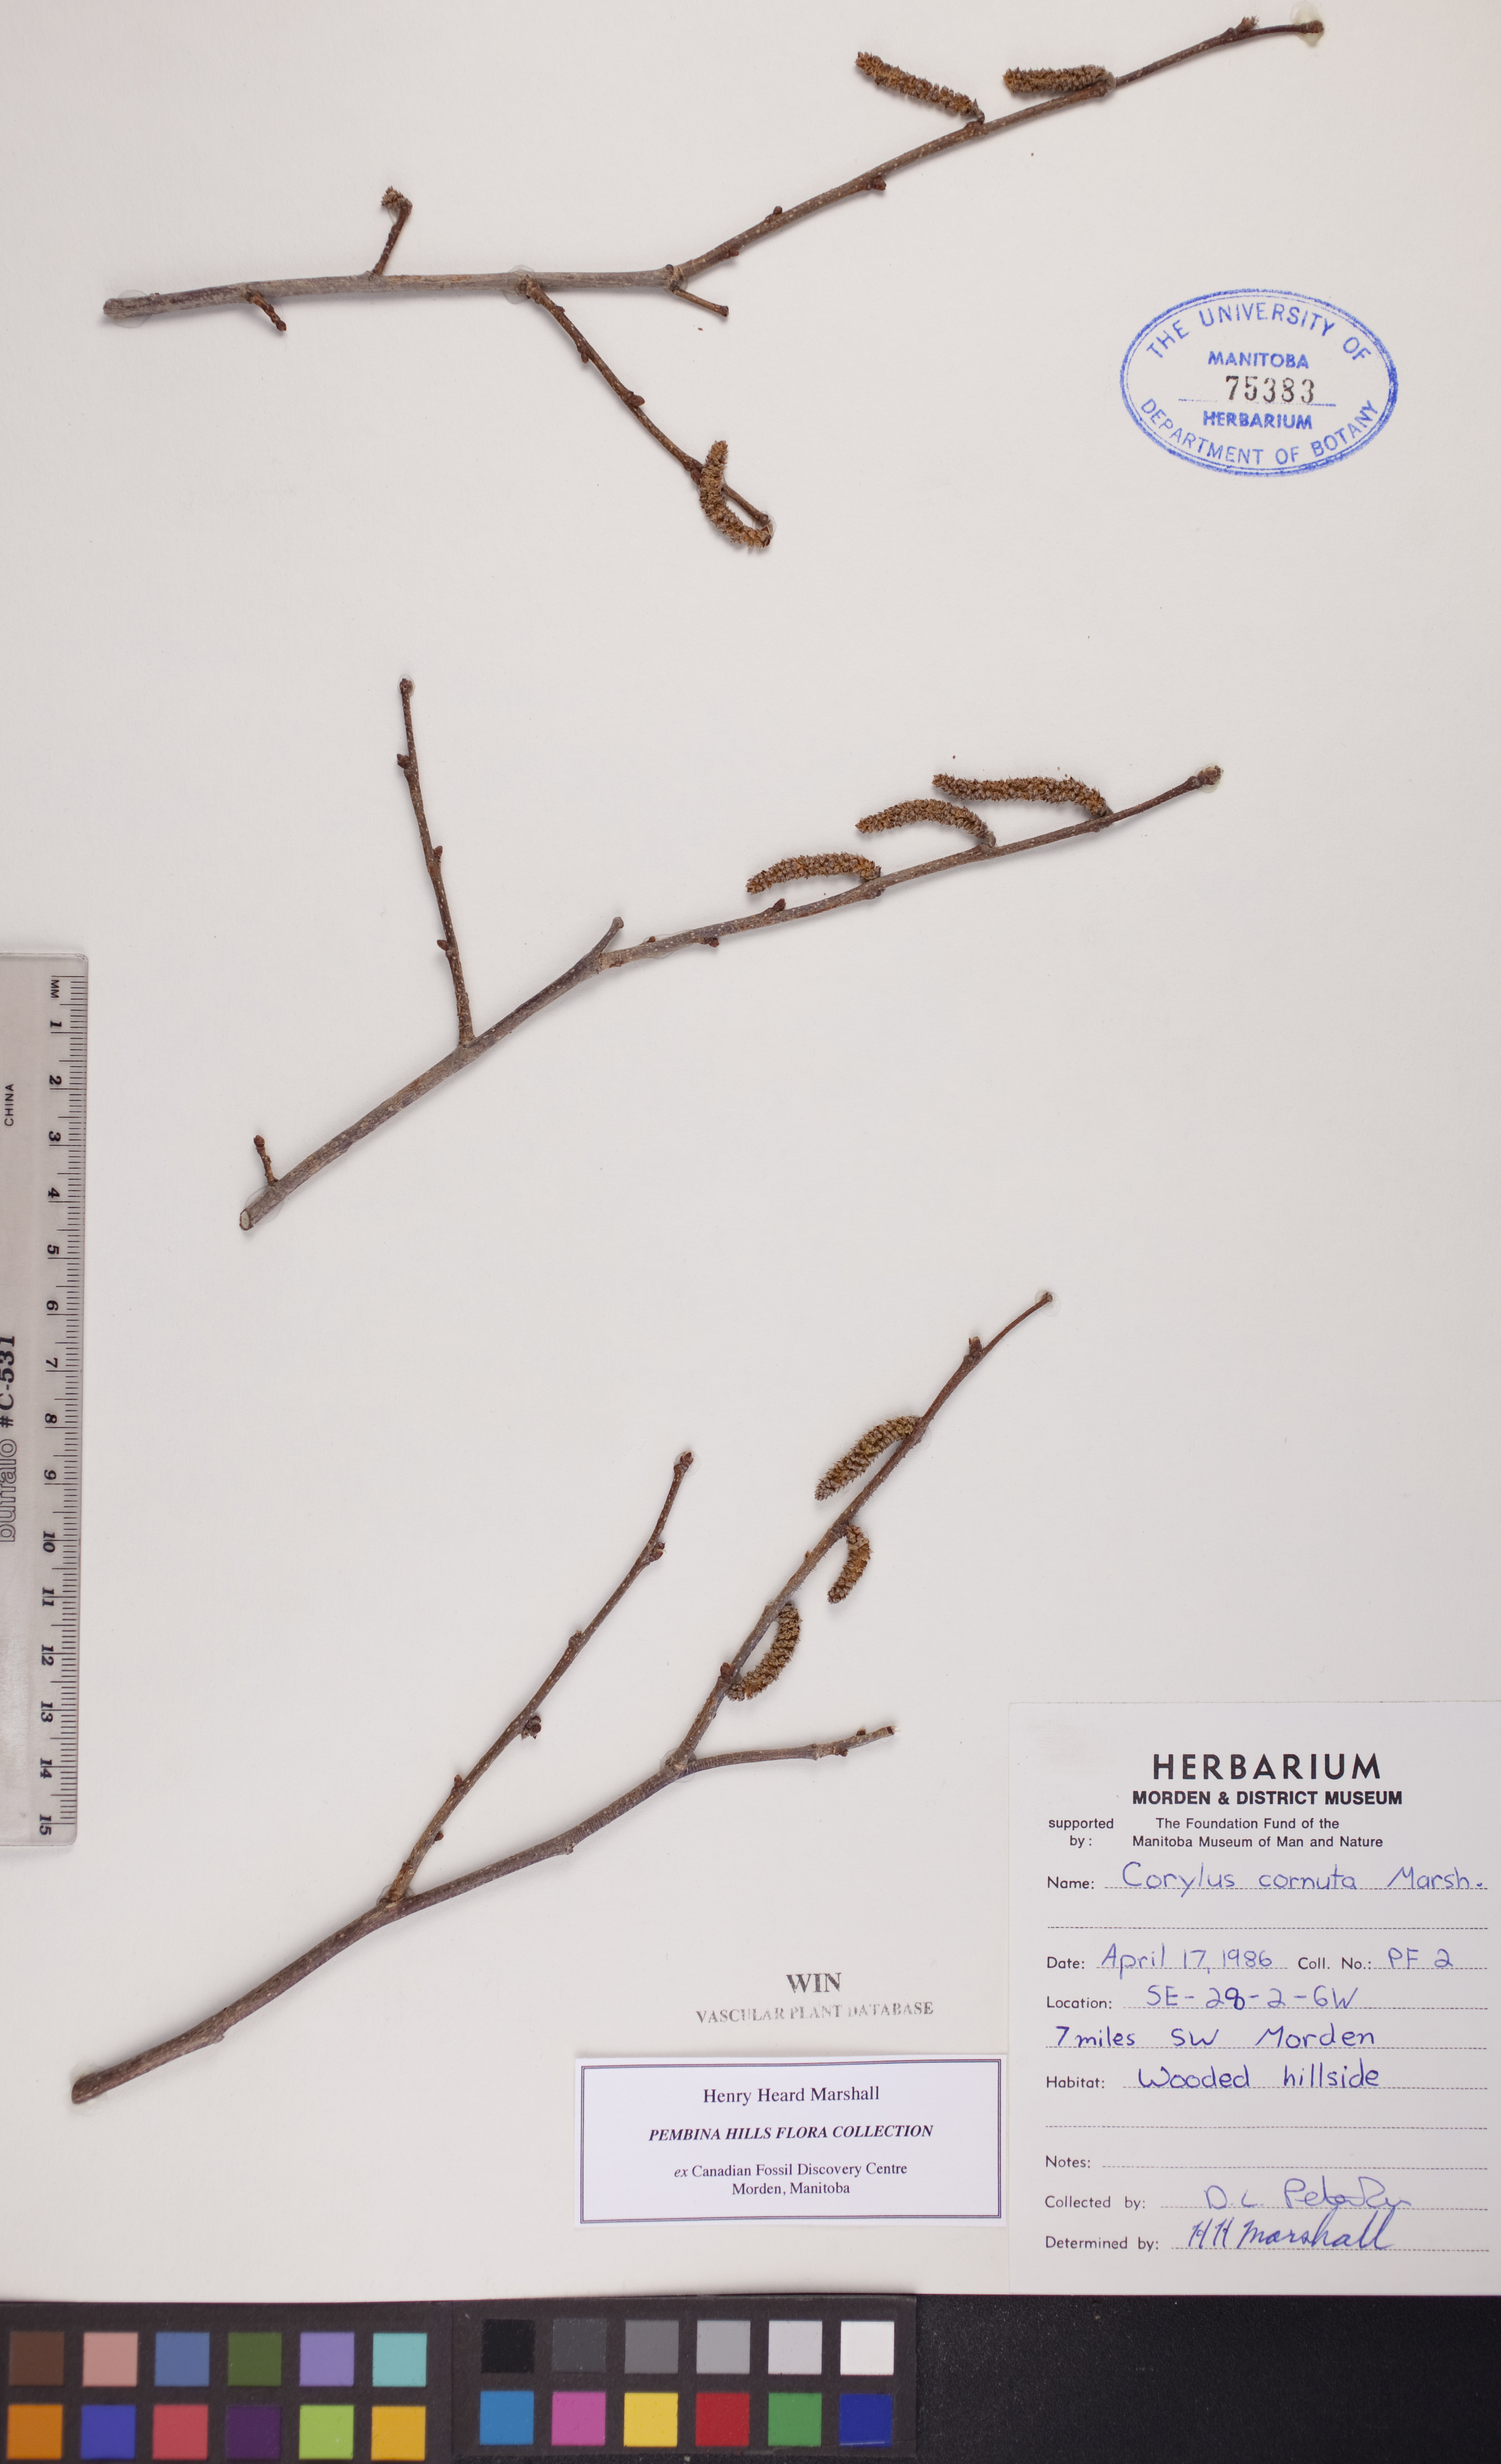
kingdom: Plantae
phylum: Tracheophyta
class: Magnoliopsida
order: Fagales
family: Betulaceae
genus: Corylus
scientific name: Corylus cornuta
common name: Beaked hazel
